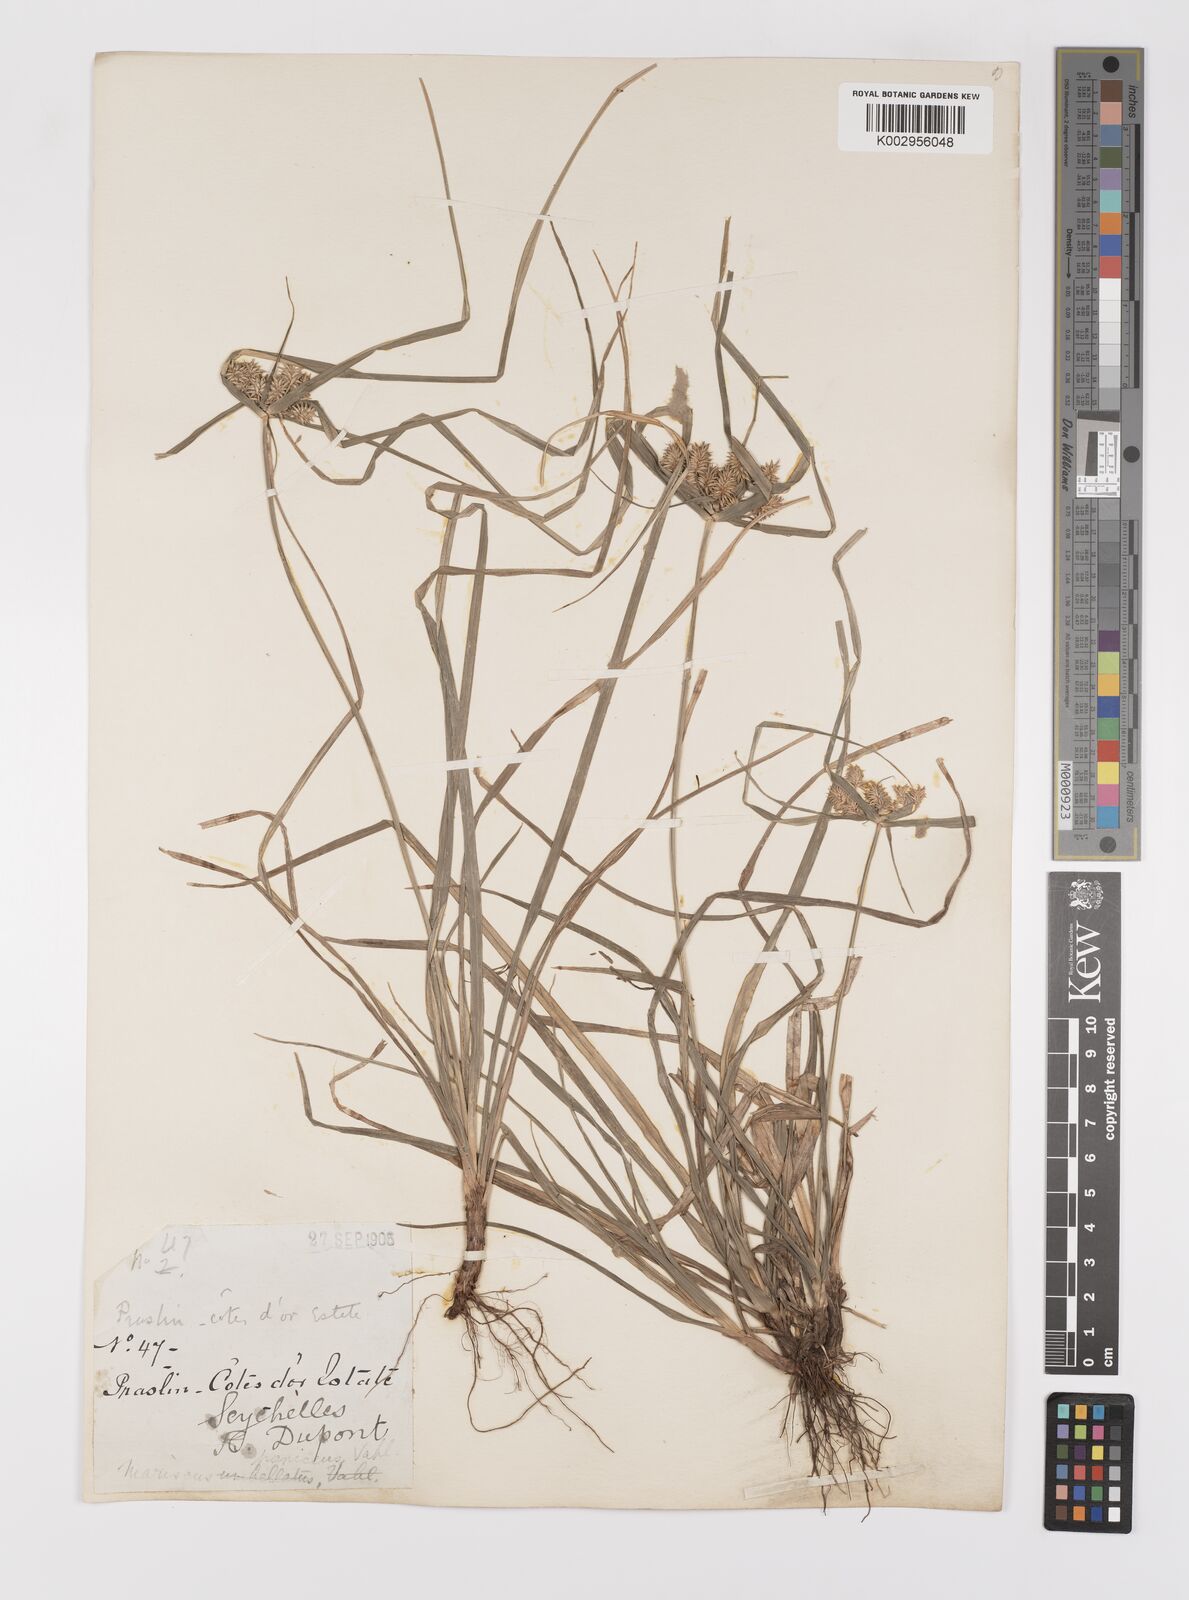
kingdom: Plantae
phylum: Tracheophyta
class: Liliopsida
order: Poales
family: Cyperaceae
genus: Cyperus
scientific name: Cyperus paniceus
